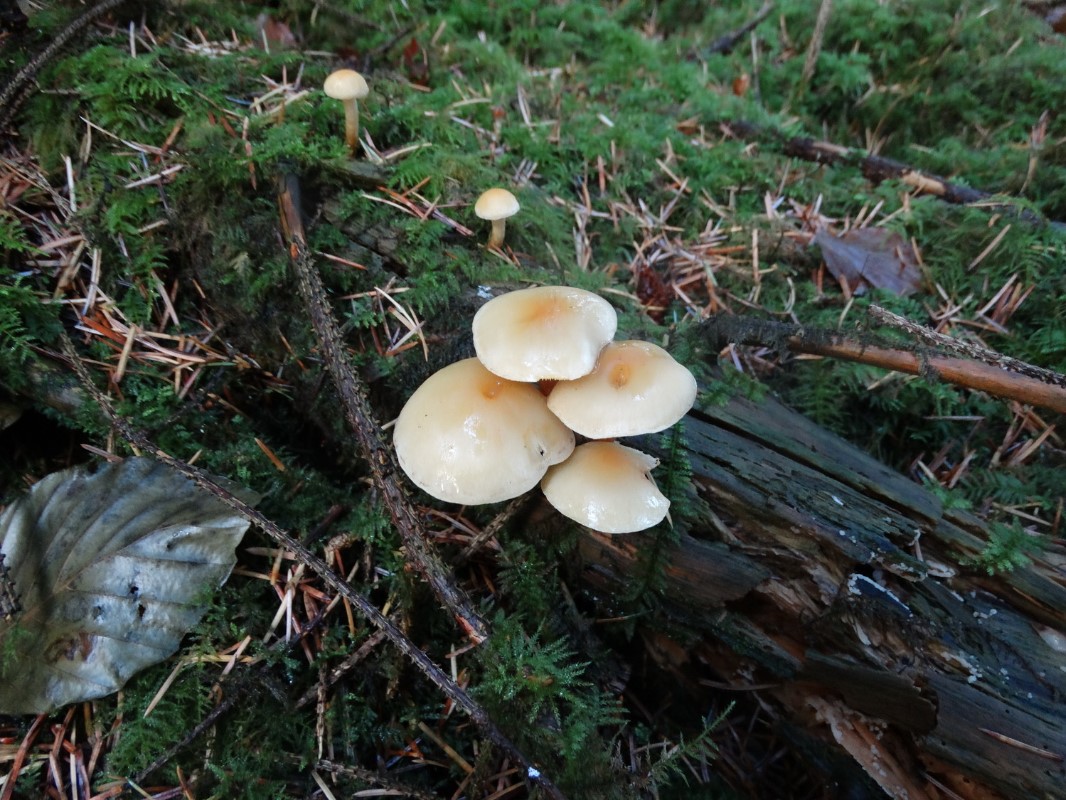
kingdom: Fungi
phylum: Basidiomycota
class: Agaricomycetes
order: Agaricales
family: Strophariaceae
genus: Hypholoma
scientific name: Hypholoma capnoides
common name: gran-svovlhat
